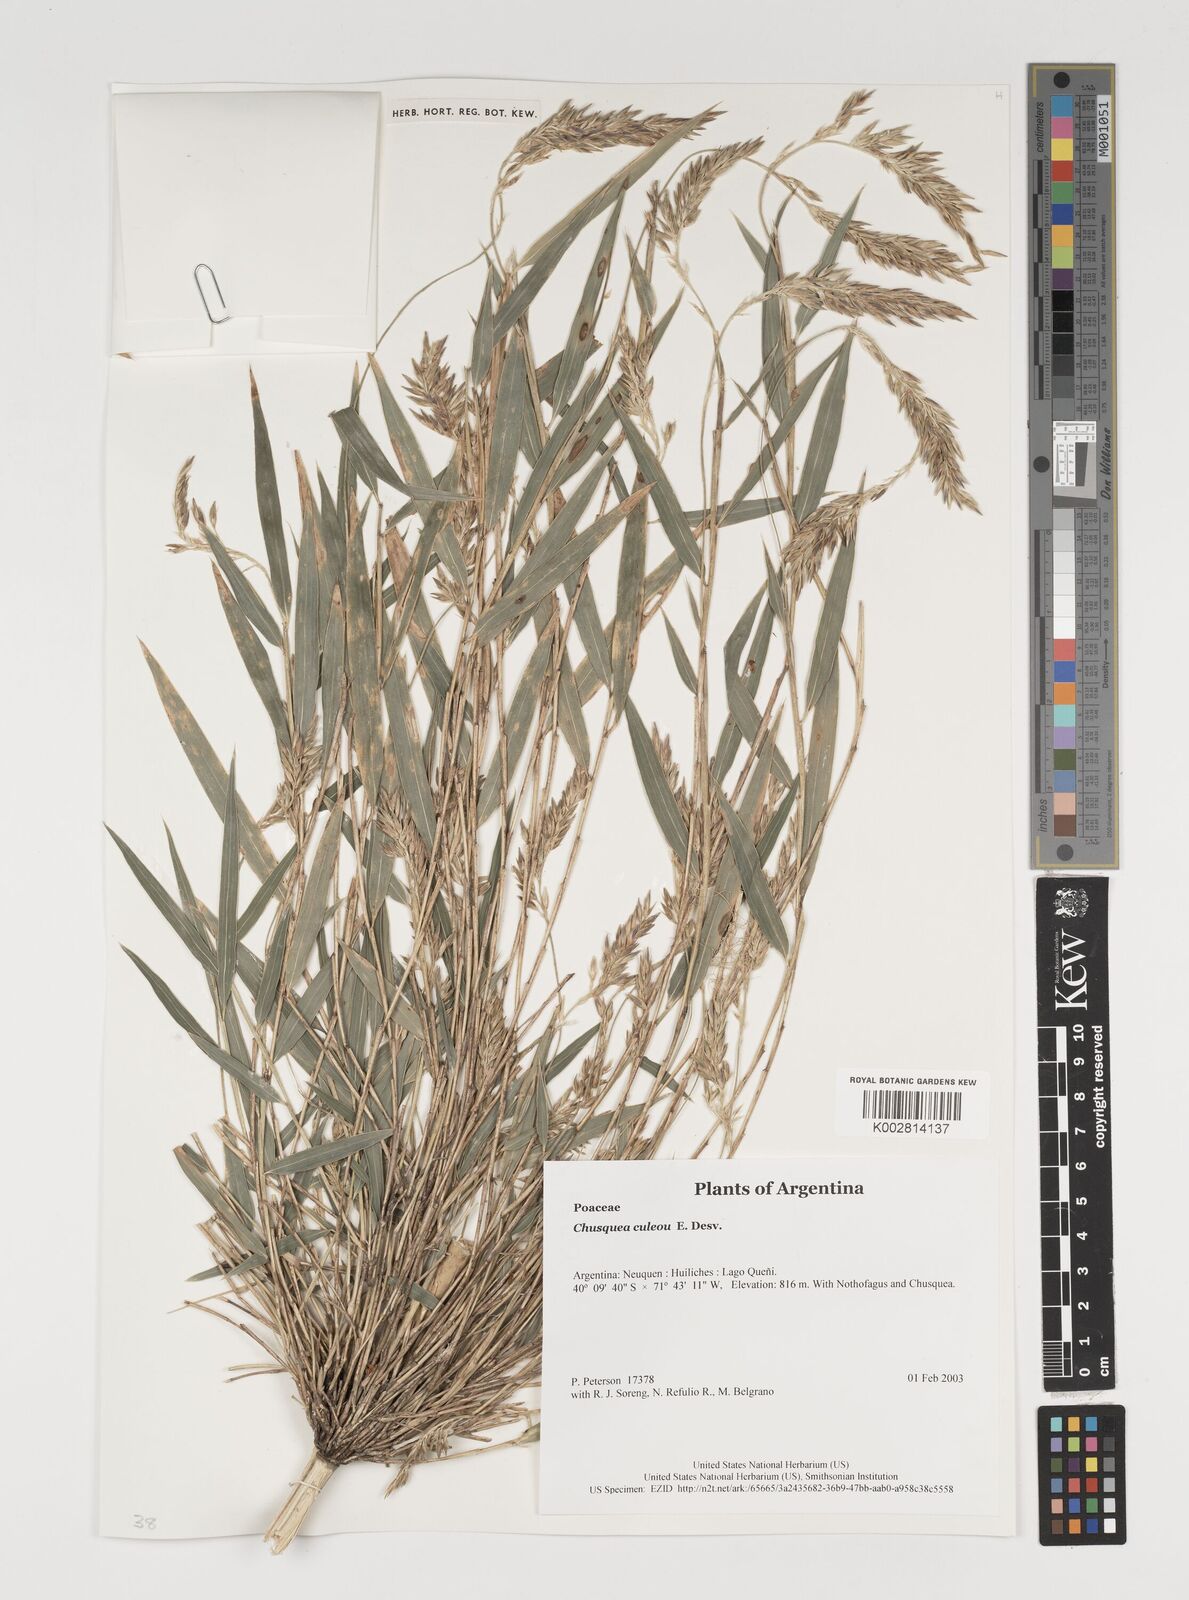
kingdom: Plantae
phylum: Tracheophyta
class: Liliopsida
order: Poales
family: Poaceae
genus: Chusquea
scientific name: Chusquea culeou
